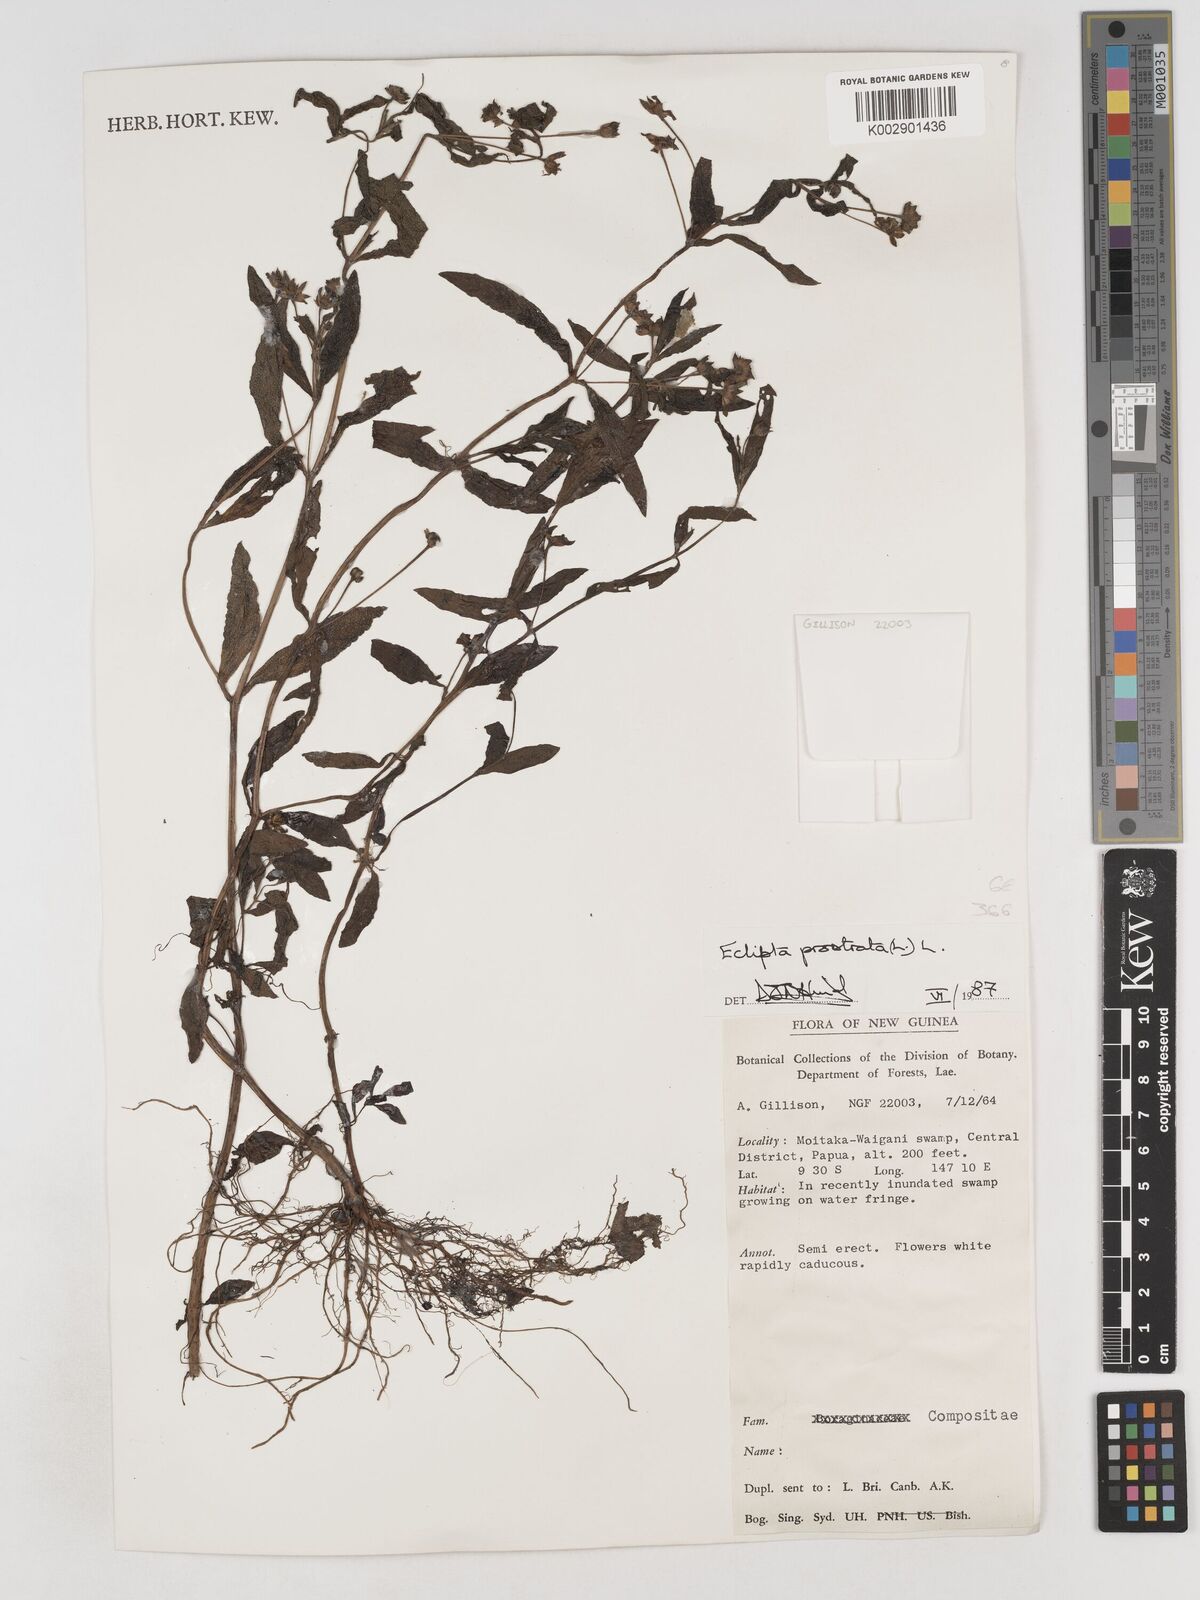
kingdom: Plantae
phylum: Tracheophyta
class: Magnoliopsida
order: Asterales
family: Asteraceae
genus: Eclipta
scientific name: Eclipta prostrata
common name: False daisy
